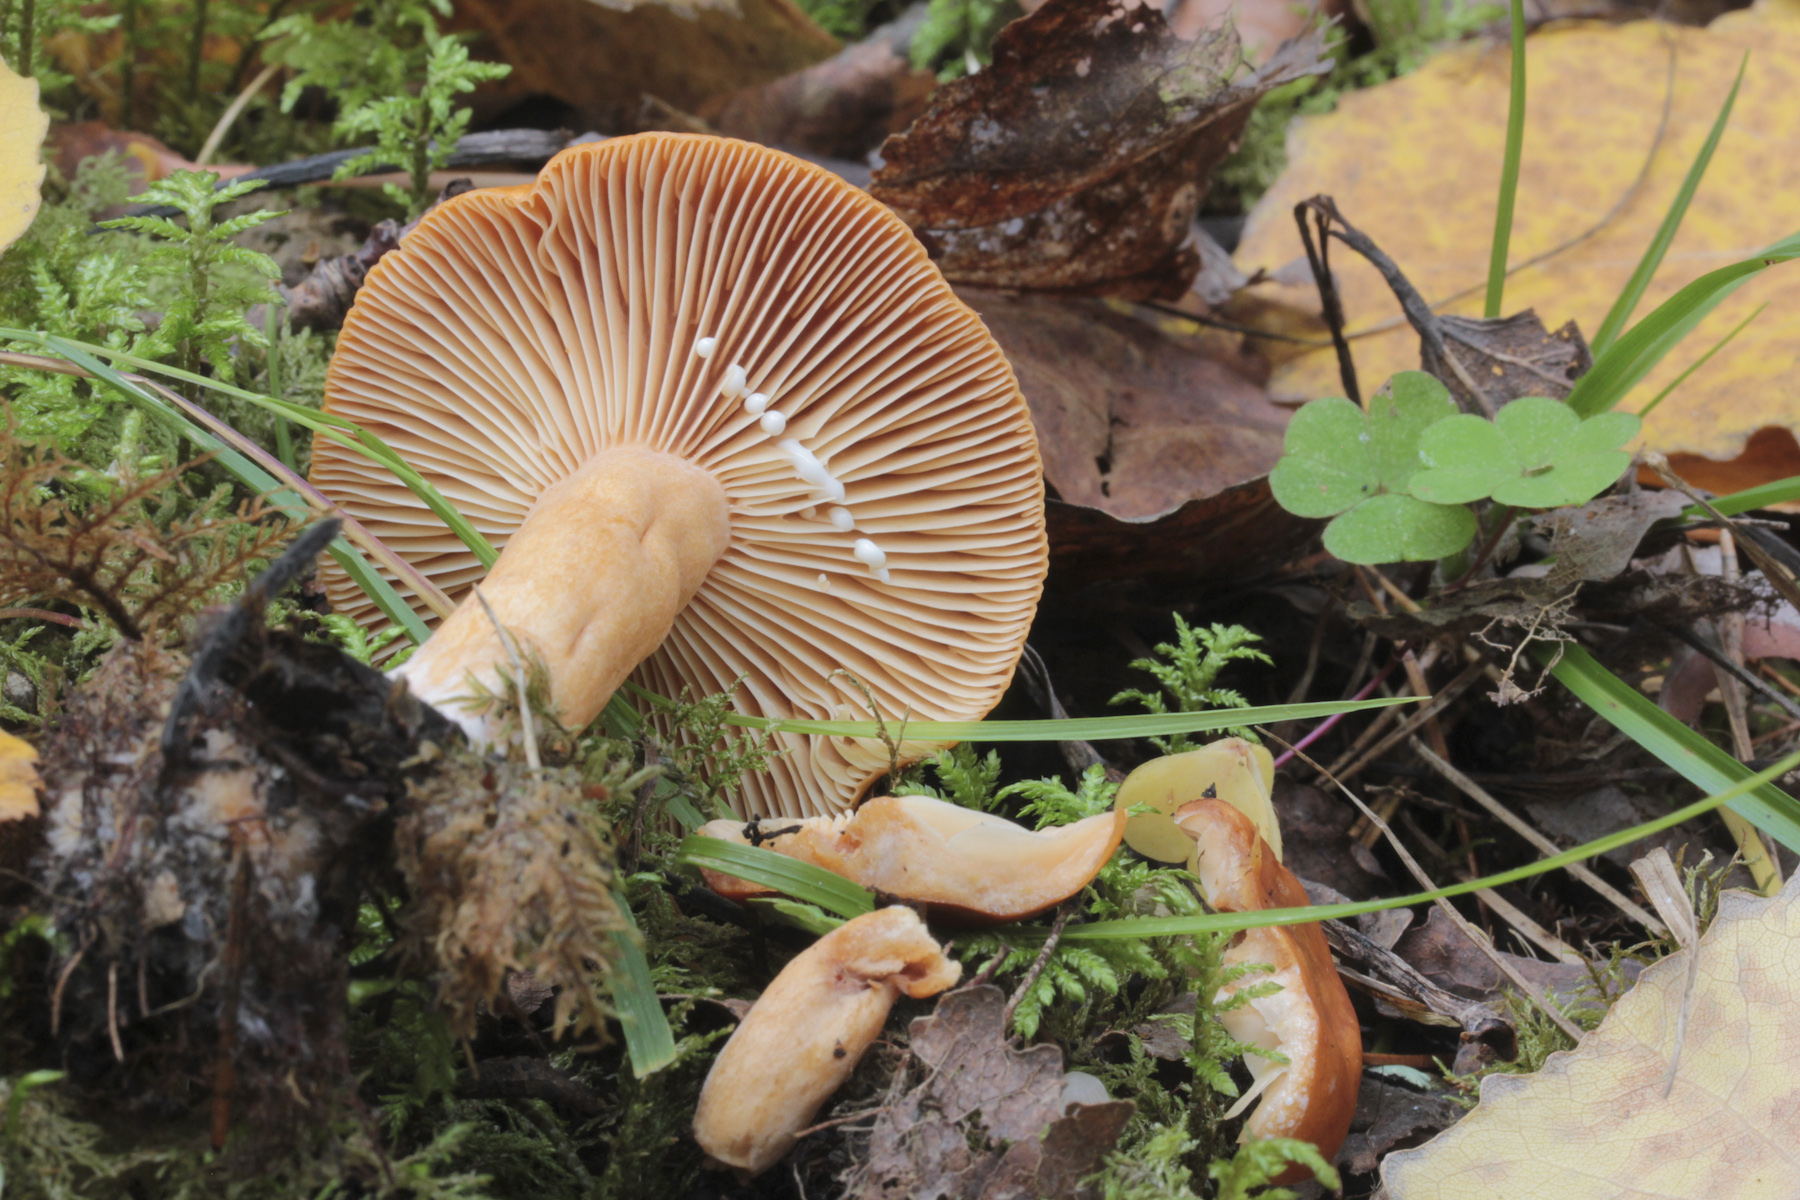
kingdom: Fungi
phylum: Basidiomycota
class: Agaricomycetes
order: Russulales
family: Russulaceae
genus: Lactarius
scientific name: Lactarius
